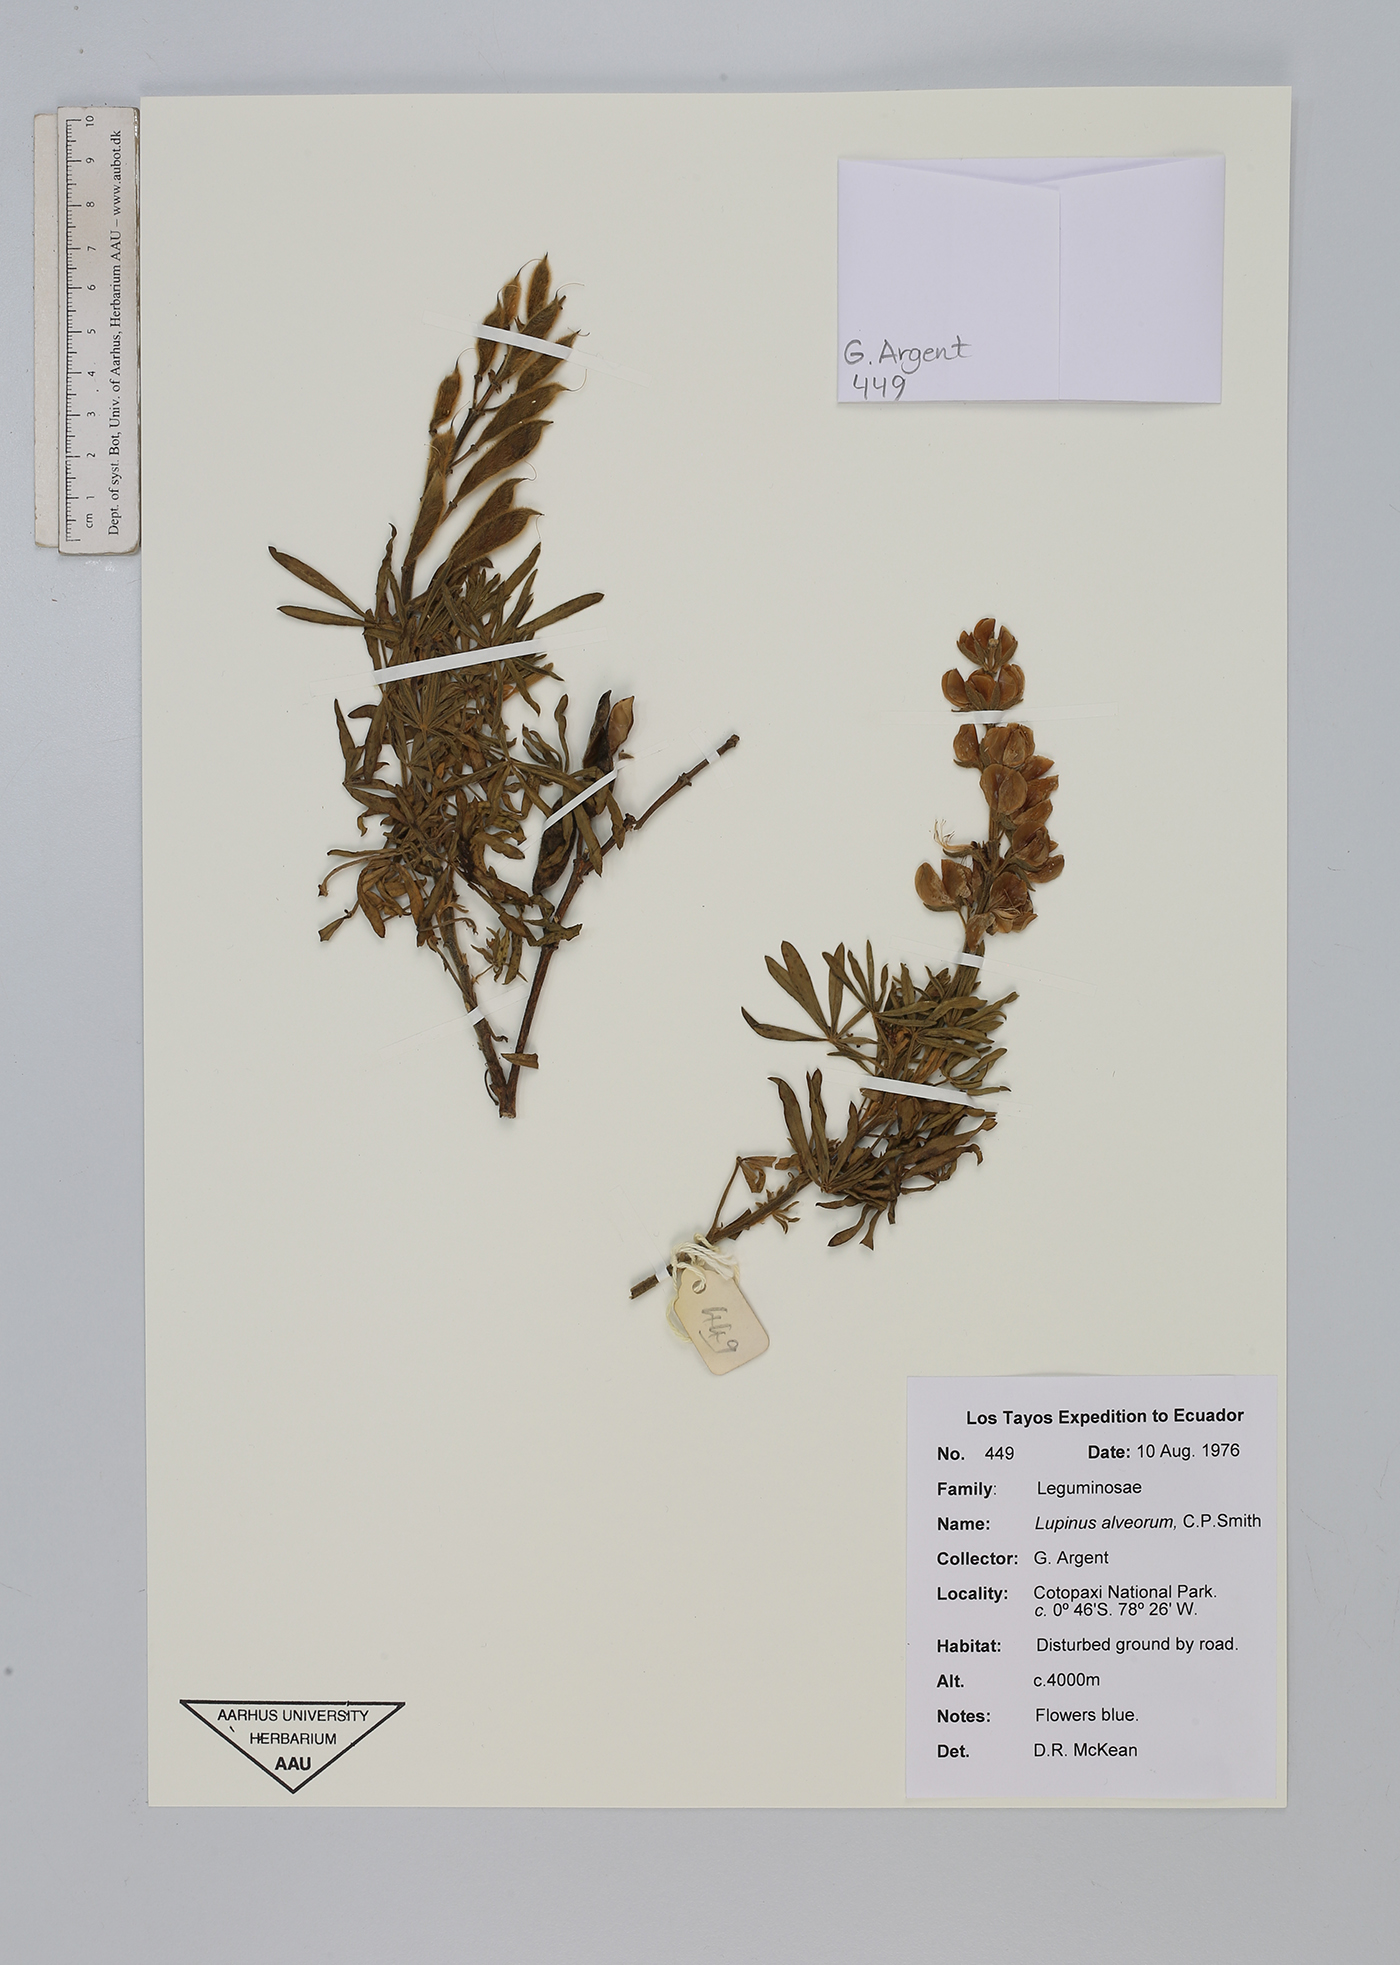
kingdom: Plantae
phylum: Tracheophyta
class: Magnoliopsida
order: Fabales
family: Fabaceae
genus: Lupinus
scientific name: Lupinus alveorum
